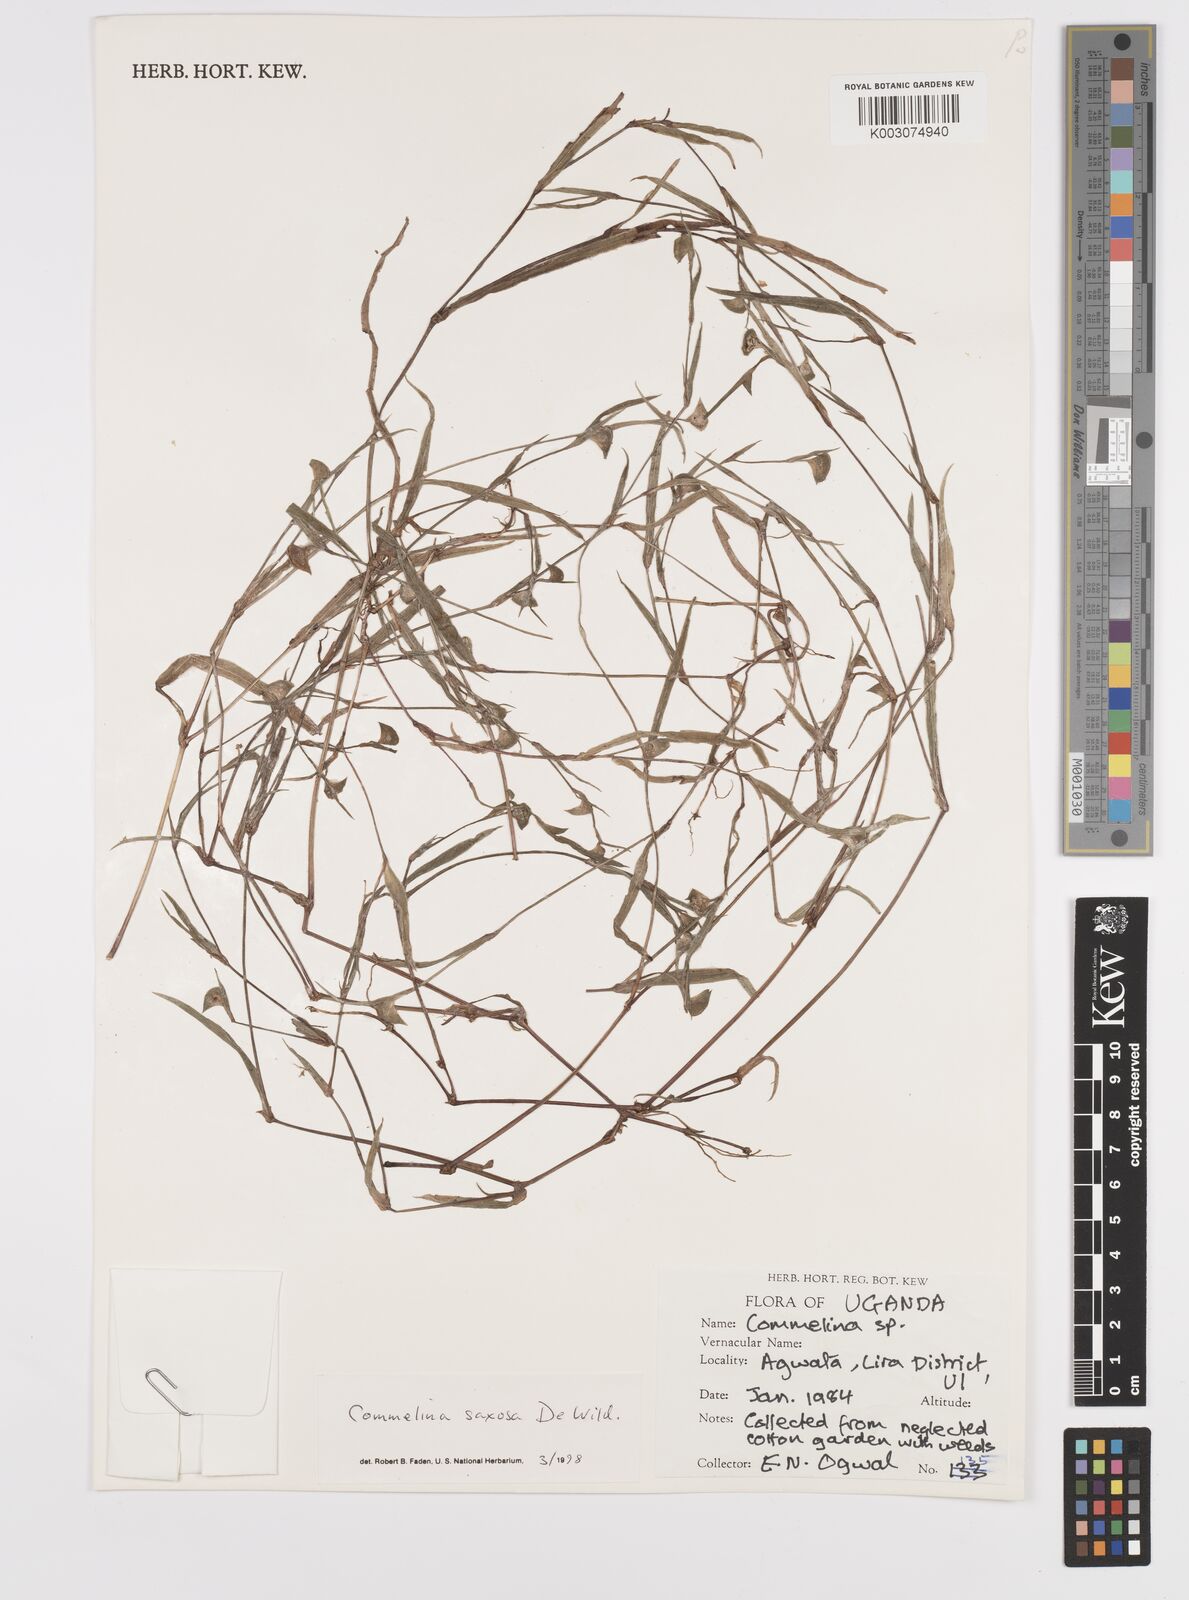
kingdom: Plantae
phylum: Tracheophyta
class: Liliopsida
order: Commelinales
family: Commelinaceae
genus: Commelina
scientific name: Commelina saxosa
